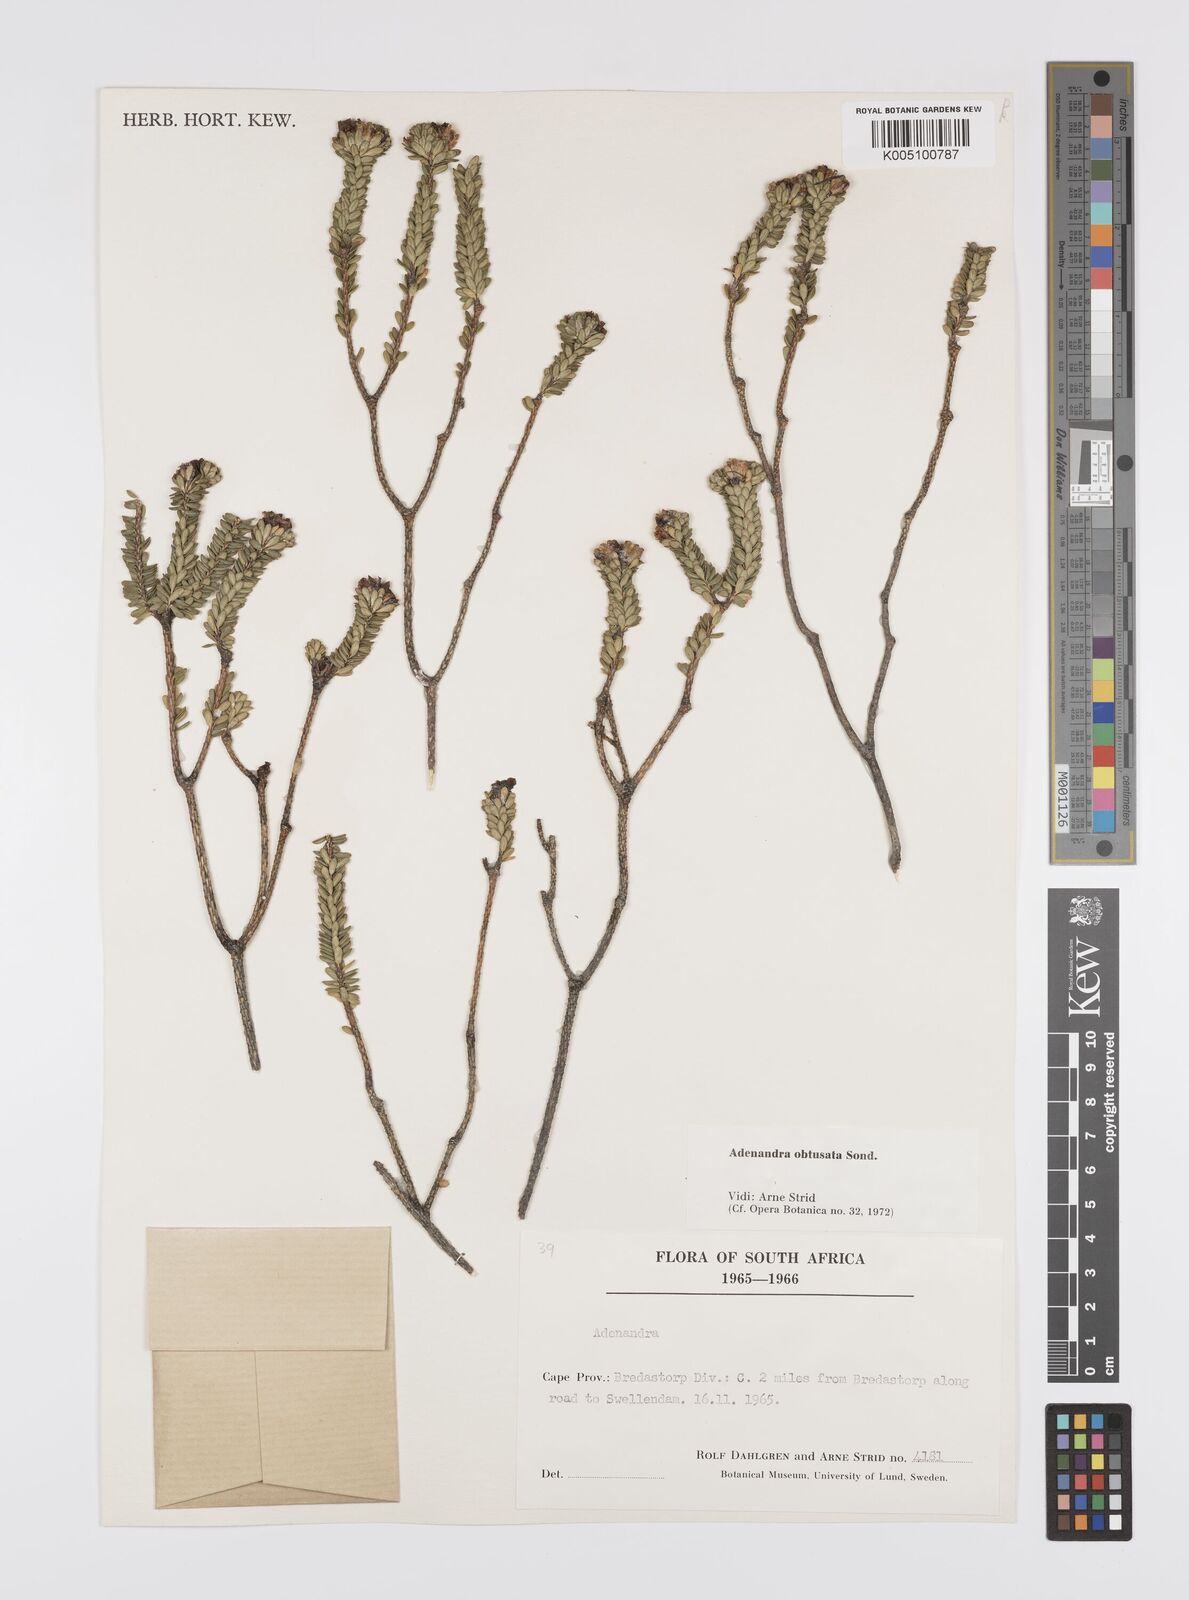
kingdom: Plantae
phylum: Tracheophyta
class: Magnoliopsida
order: Sapindales
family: Rutaceae
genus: Adenandra
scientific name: Adenandra obtusata
